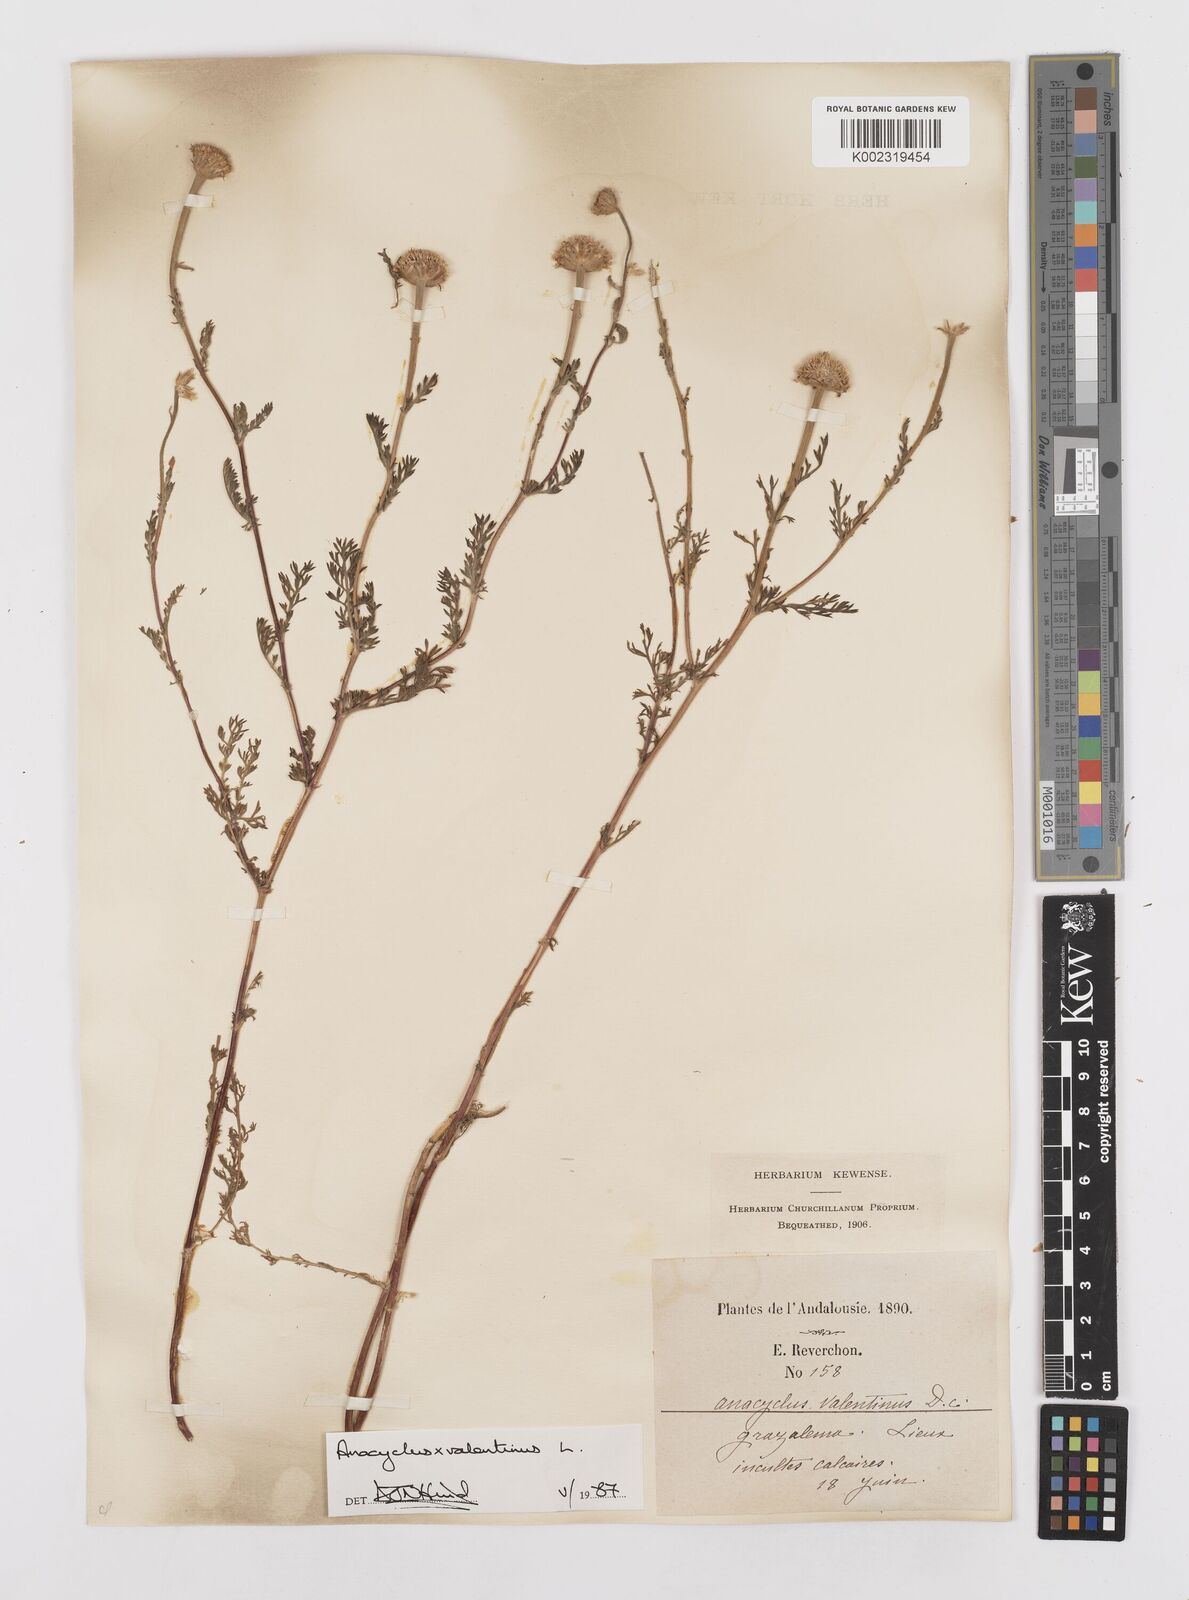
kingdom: Plantae
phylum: Tracheophyta
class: Magnoliopsida
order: Asterales
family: Asteraceae
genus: Anacyclus
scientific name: Anacyclus valentinus
